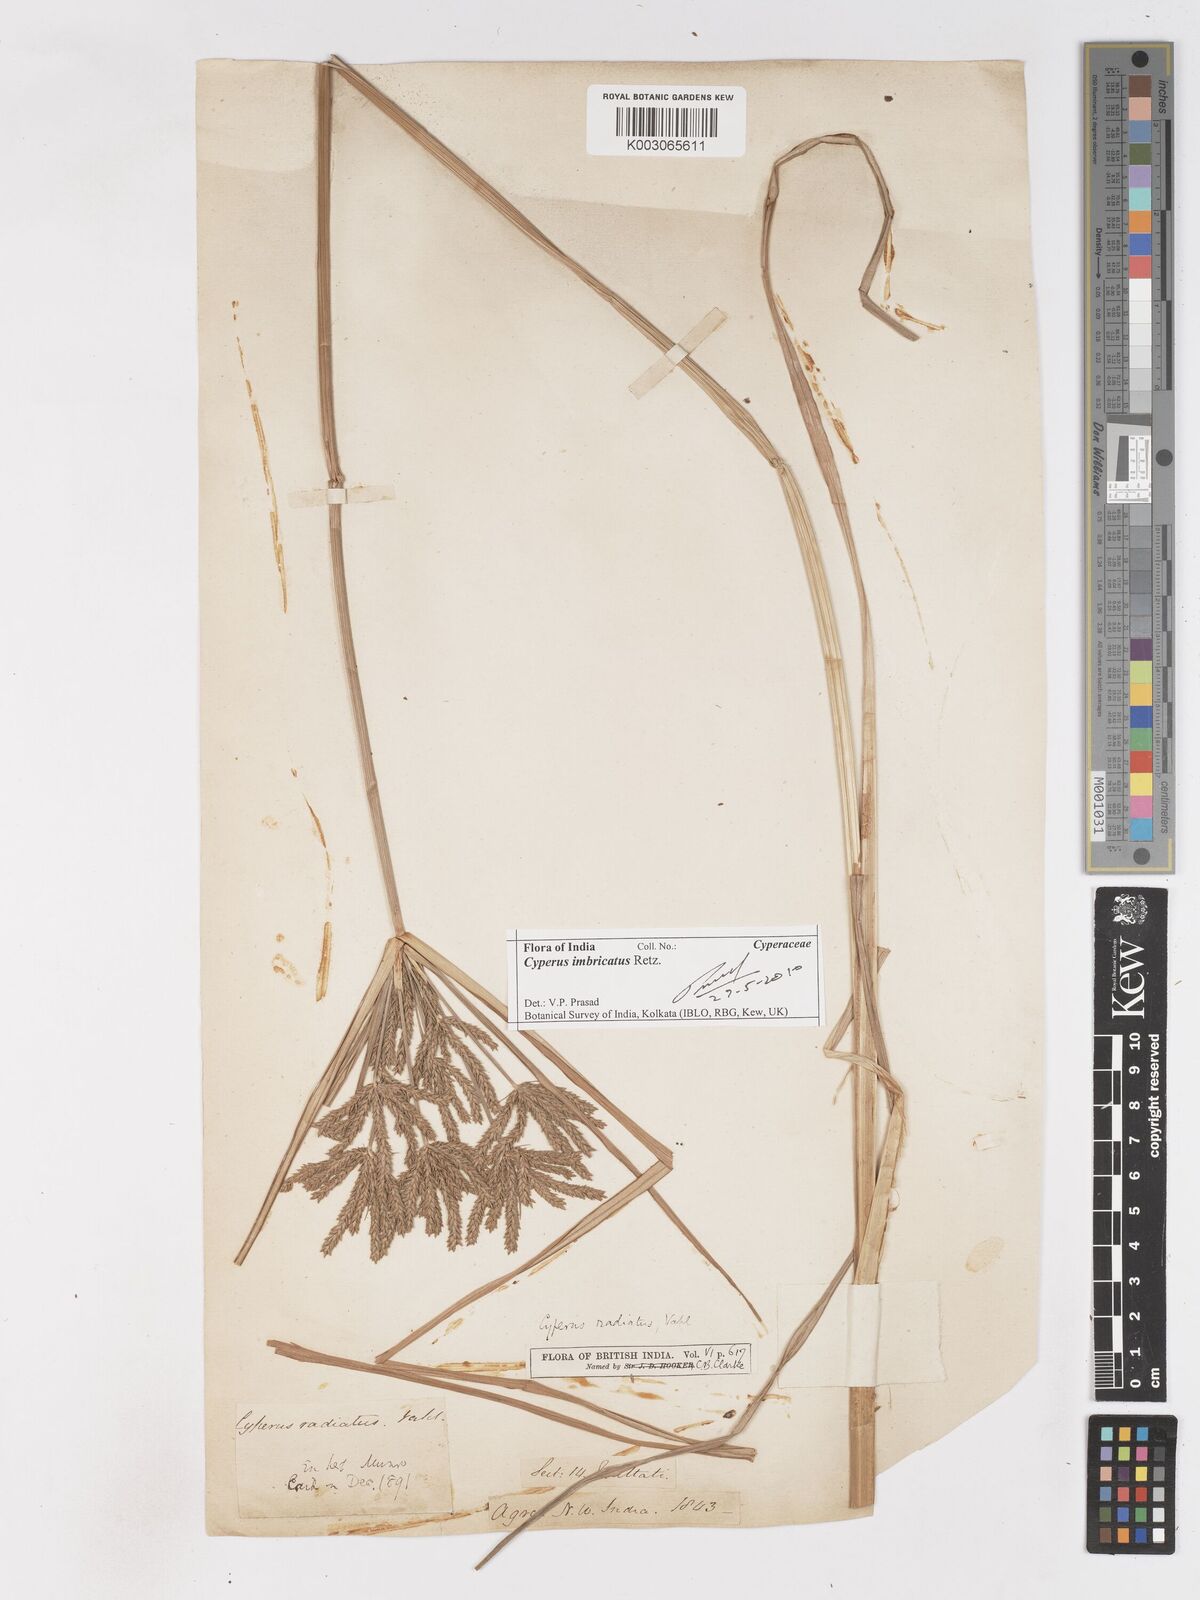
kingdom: Plantae
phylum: Tracheophyta
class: Liliopsida
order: Poales
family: Cyperaceae
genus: Cyperus
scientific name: Cyperus imbricatus
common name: Shingle flatsedge
